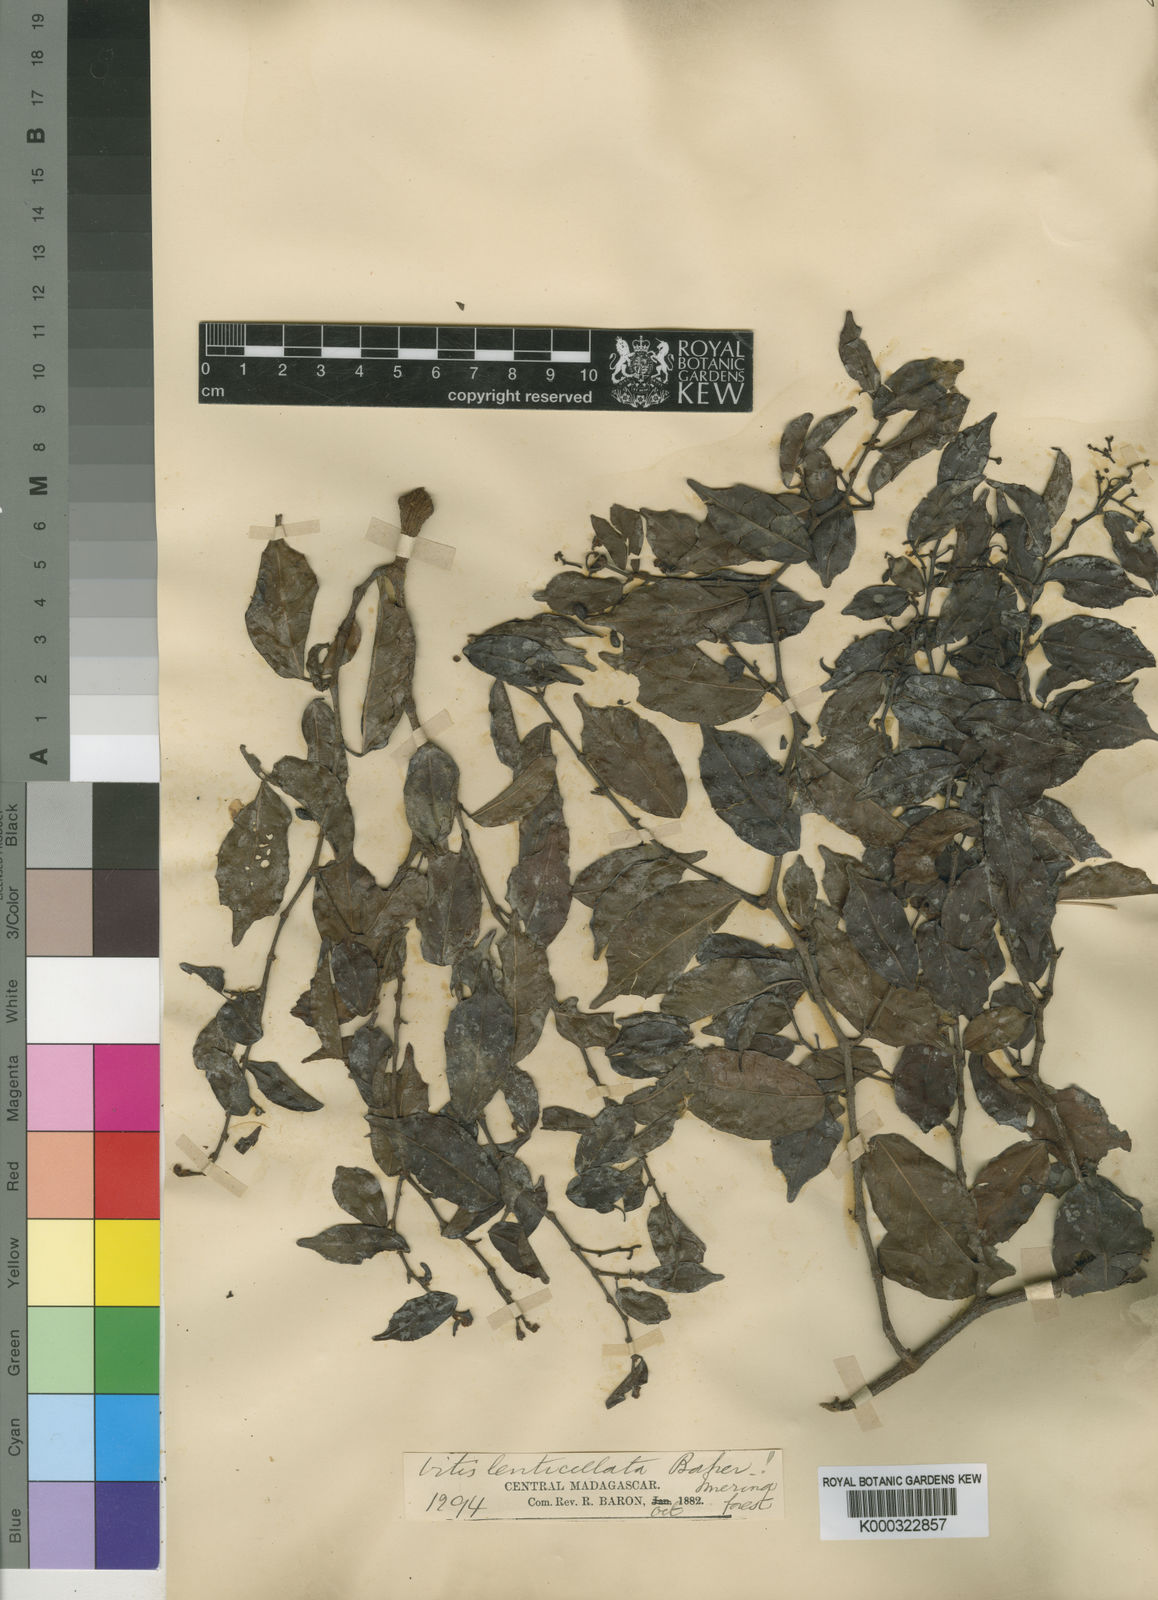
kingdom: Plantae
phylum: Tracheophyta
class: Magnoliopsida
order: Vitales
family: Vitaceae
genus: Cissus
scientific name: Cissus floribunda
